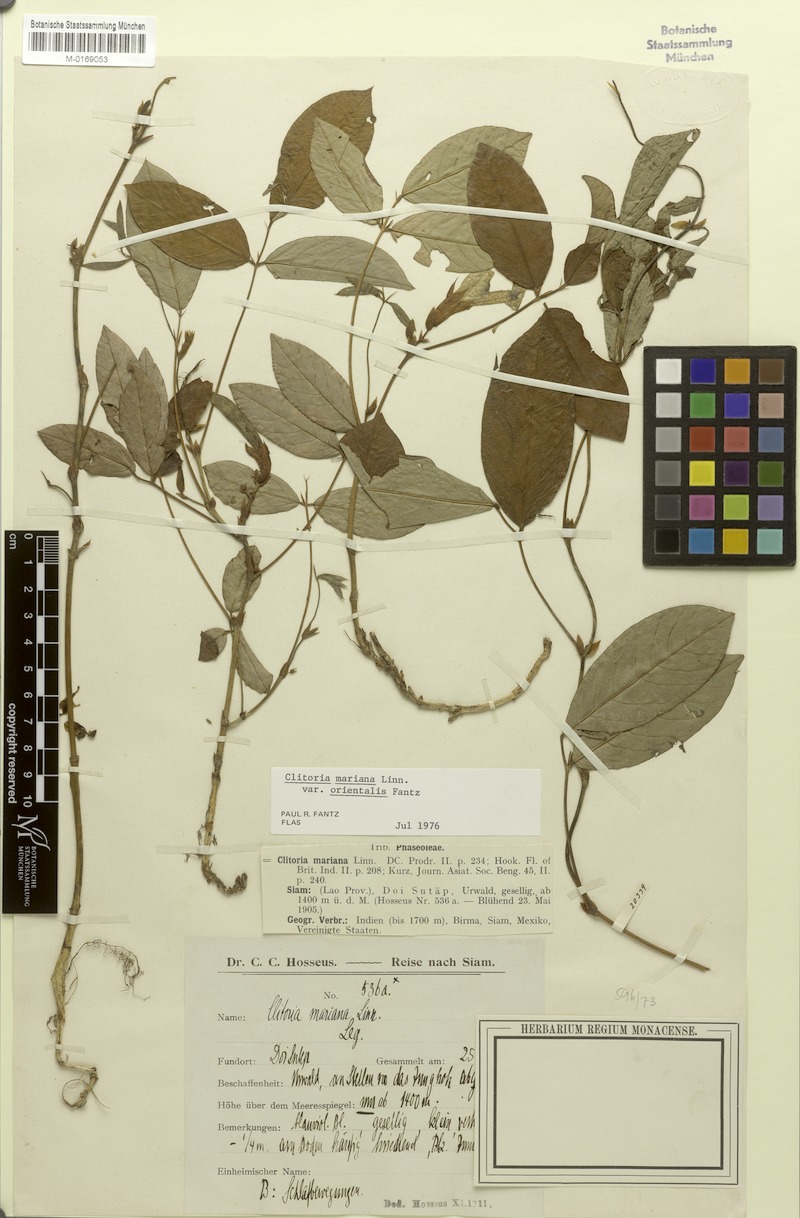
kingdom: Plantae
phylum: Tracheophyta
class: Magnoliopsida
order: Fabales
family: Fabaceae
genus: Clitoria
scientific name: Clitoria mariana
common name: Butterfly-pea
